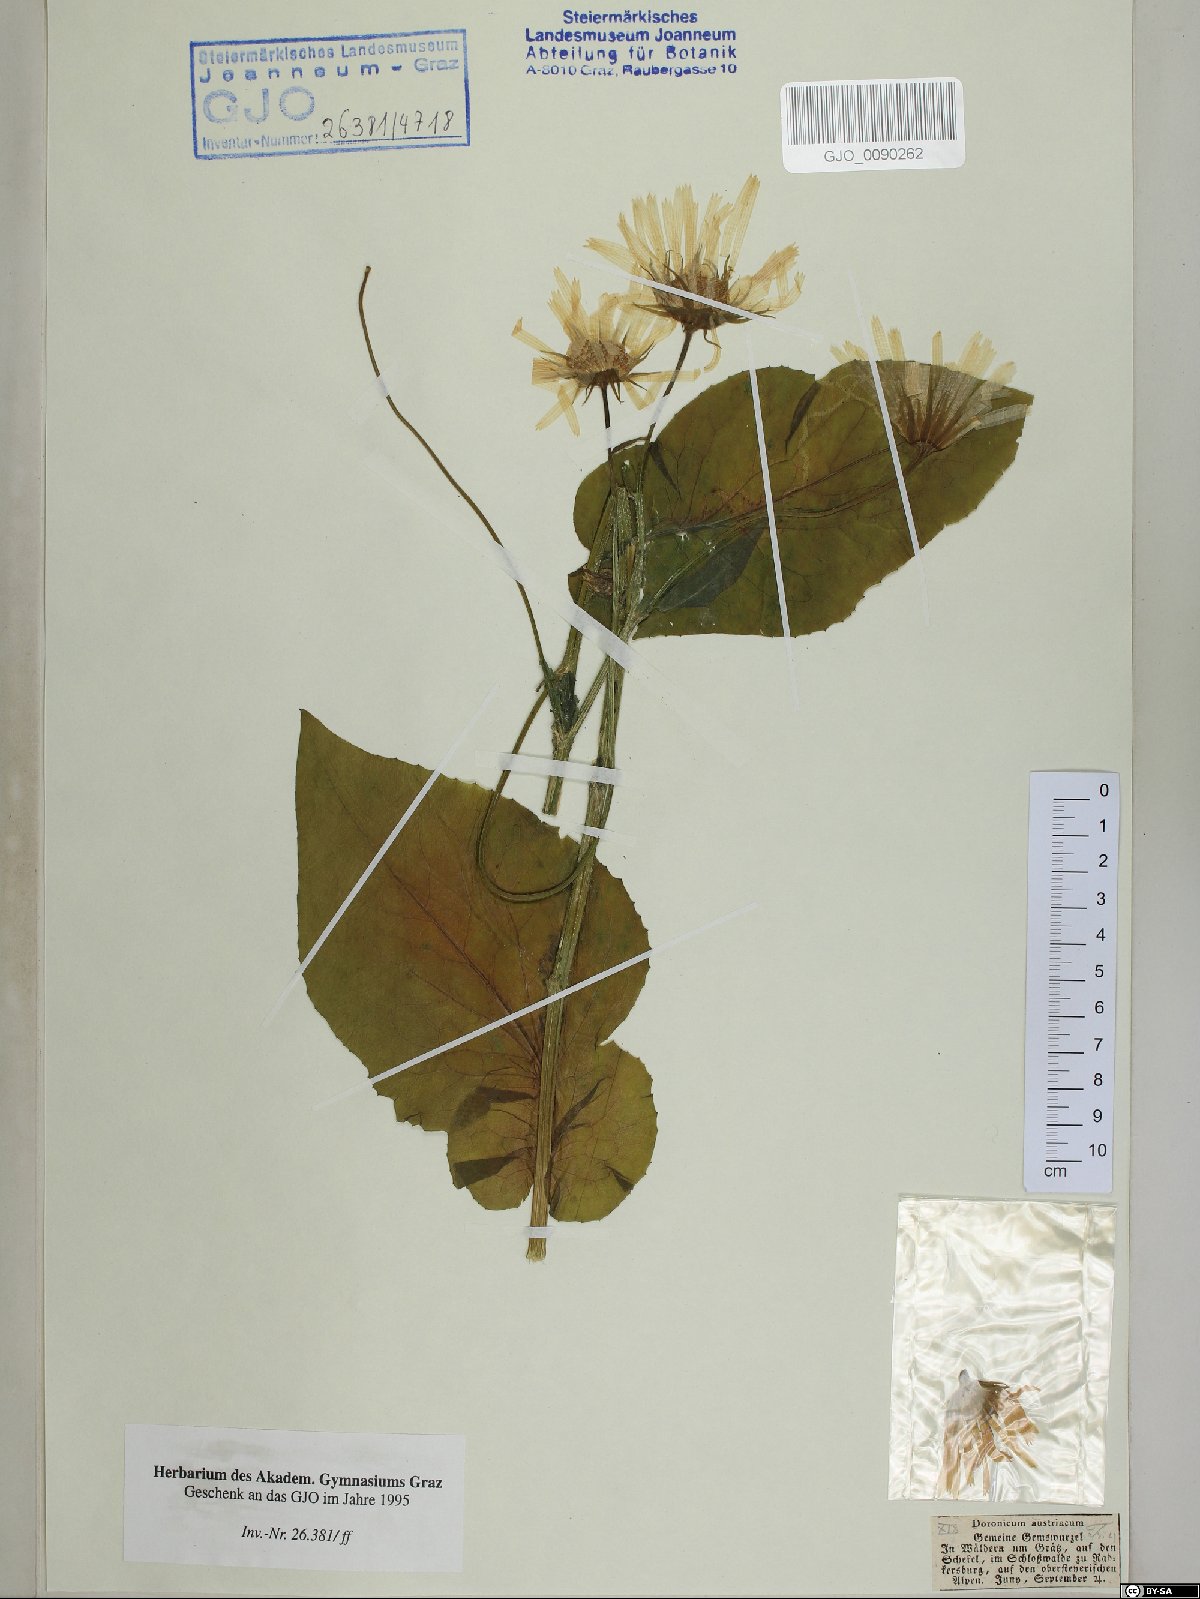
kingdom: Plantae
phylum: Tracheophyta
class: Magnoliopsida
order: Asterales
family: Asteraceae
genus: Doronicum
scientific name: Doronicum austriacum
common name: Austrian leopard's-bane
